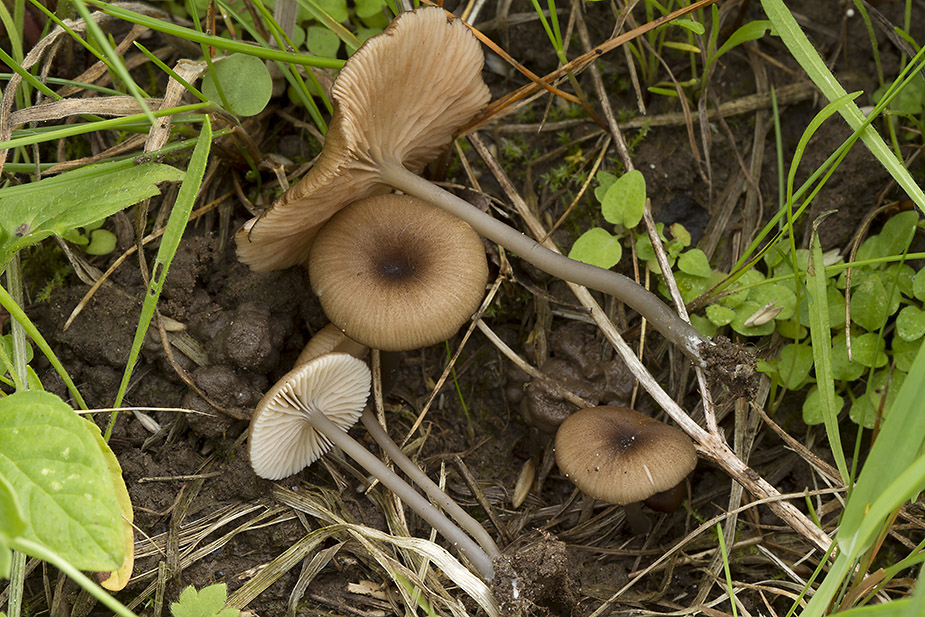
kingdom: Fungi
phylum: Basidiomycota
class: Agaricomycetes
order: Agaricales
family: Entolomataceae
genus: Entoloma
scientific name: Entoloma allospermum
